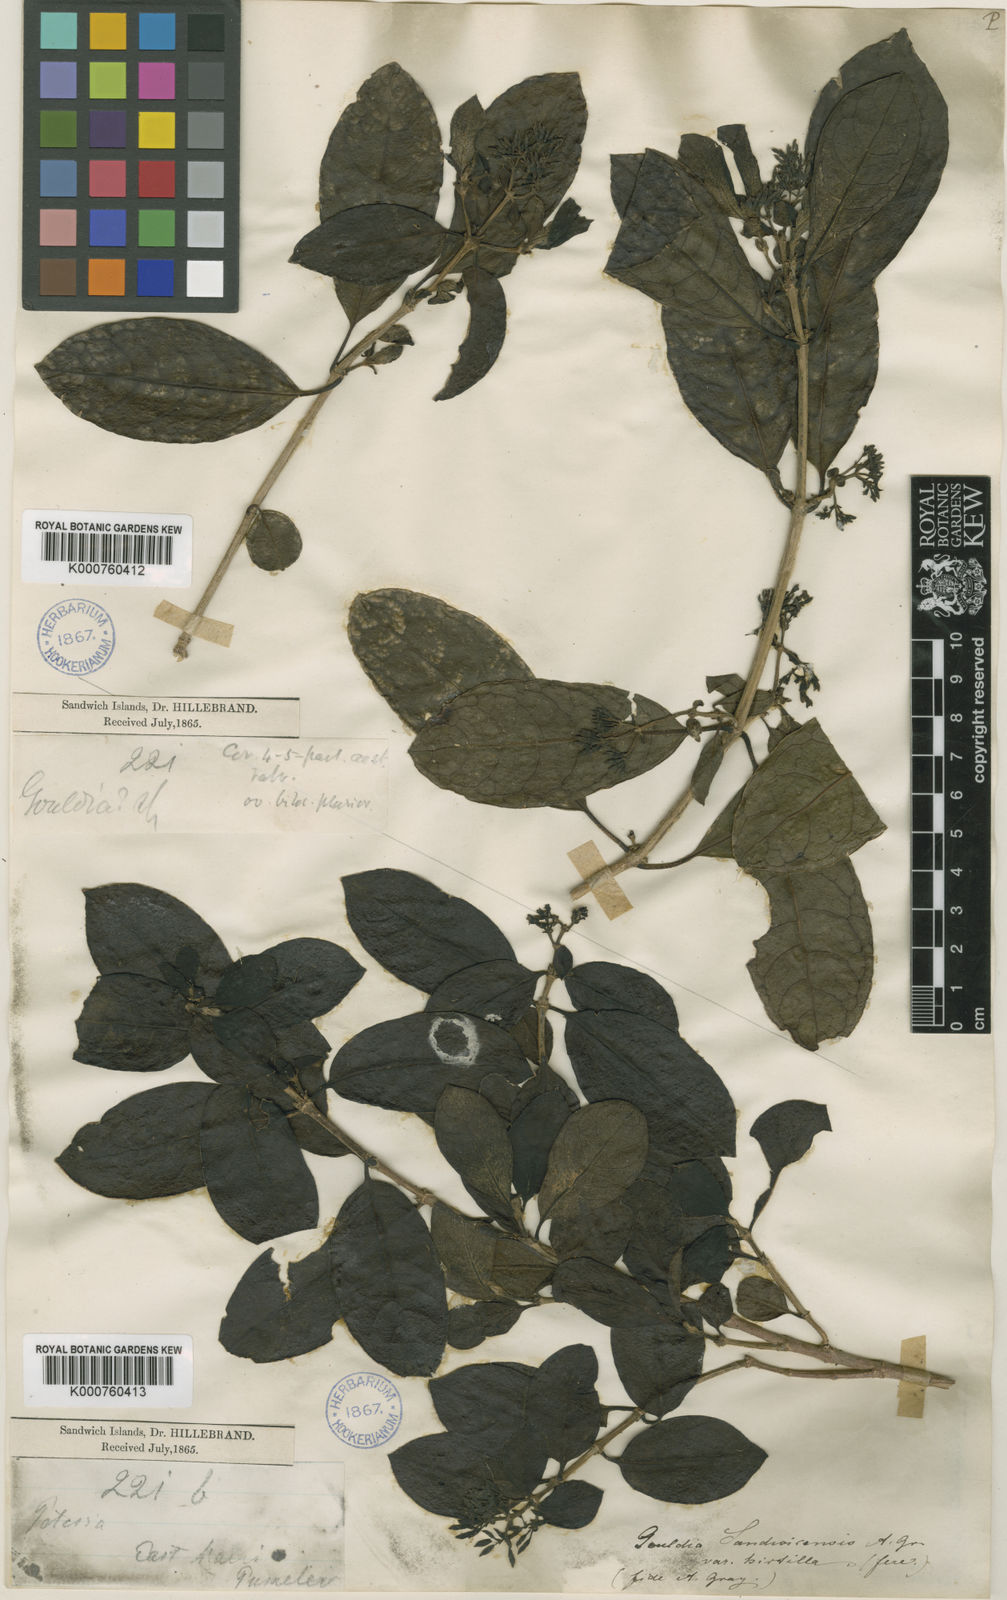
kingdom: Plantae
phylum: Tracheophyta
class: Magnoliopsida
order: Gentianales
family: Rubiaceae
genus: Kadua
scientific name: Kadua axillaris
